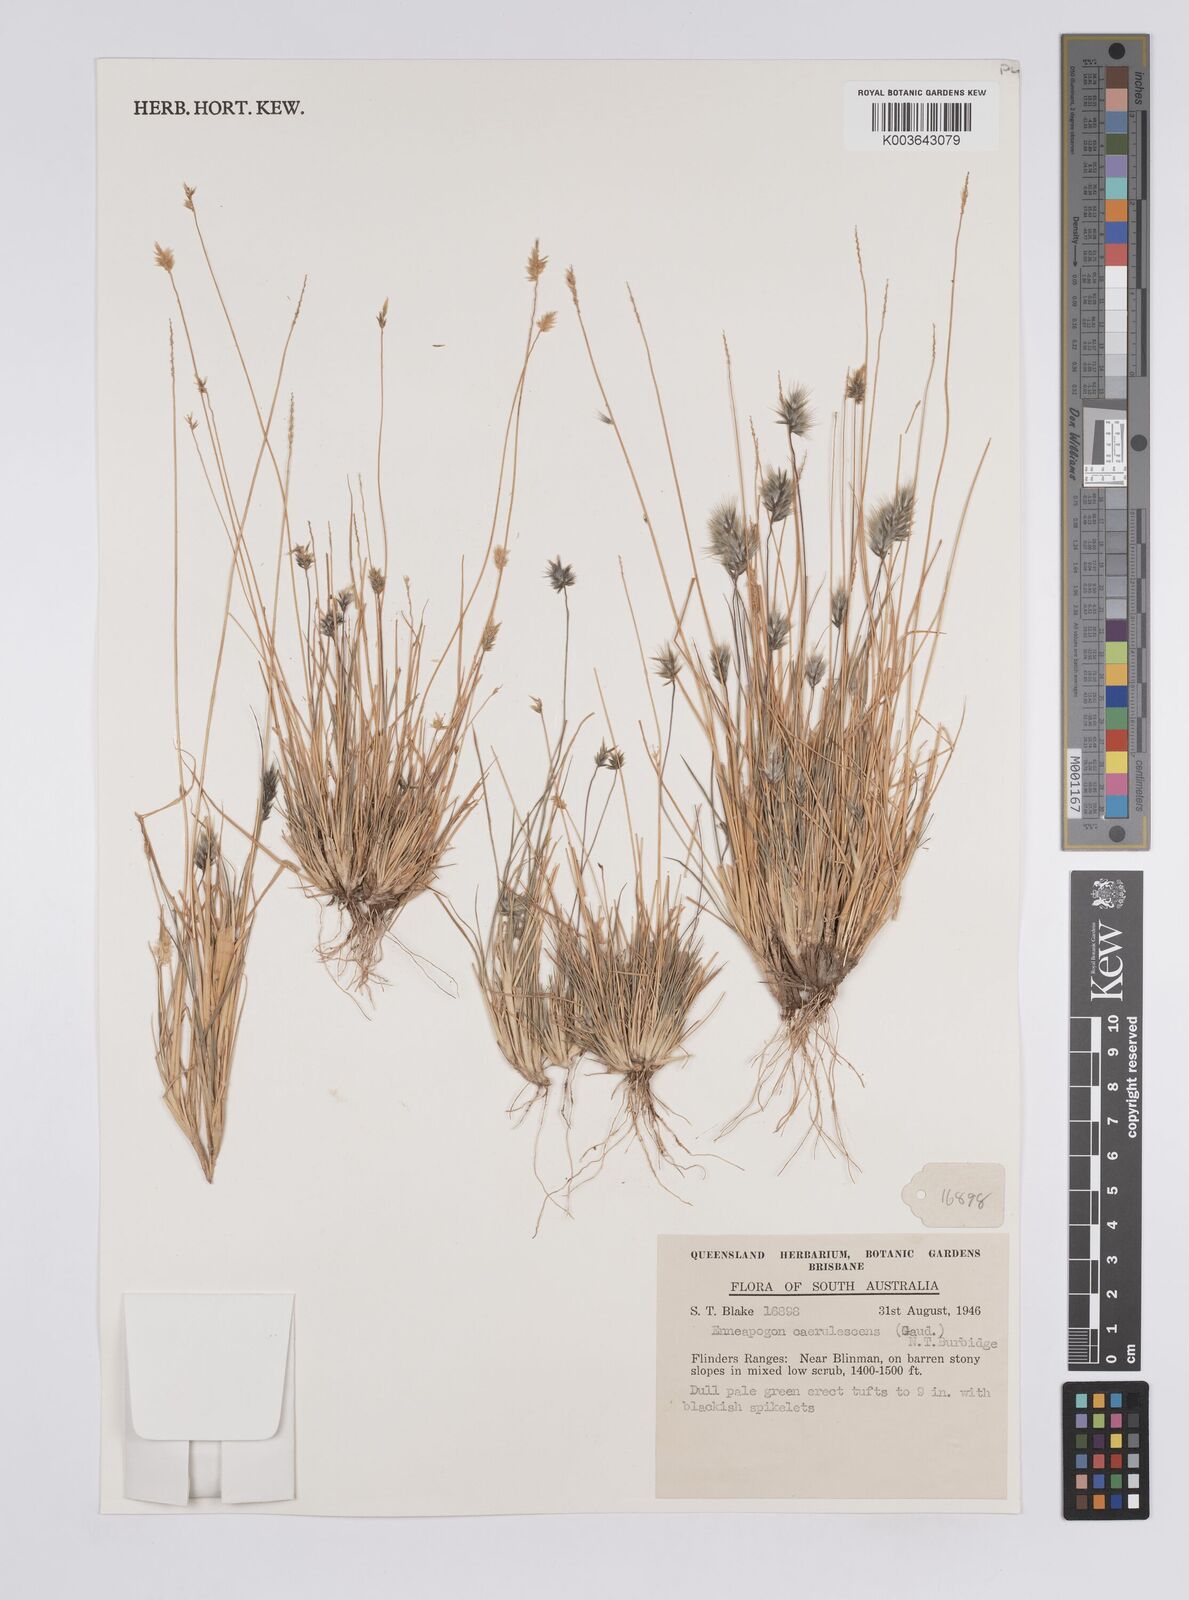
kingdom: Plantae
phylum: Tracheophyta
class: Liliopsida
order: Poales
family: Poaceae
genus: Enneapogon
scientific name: Enneapogon caerulescens
